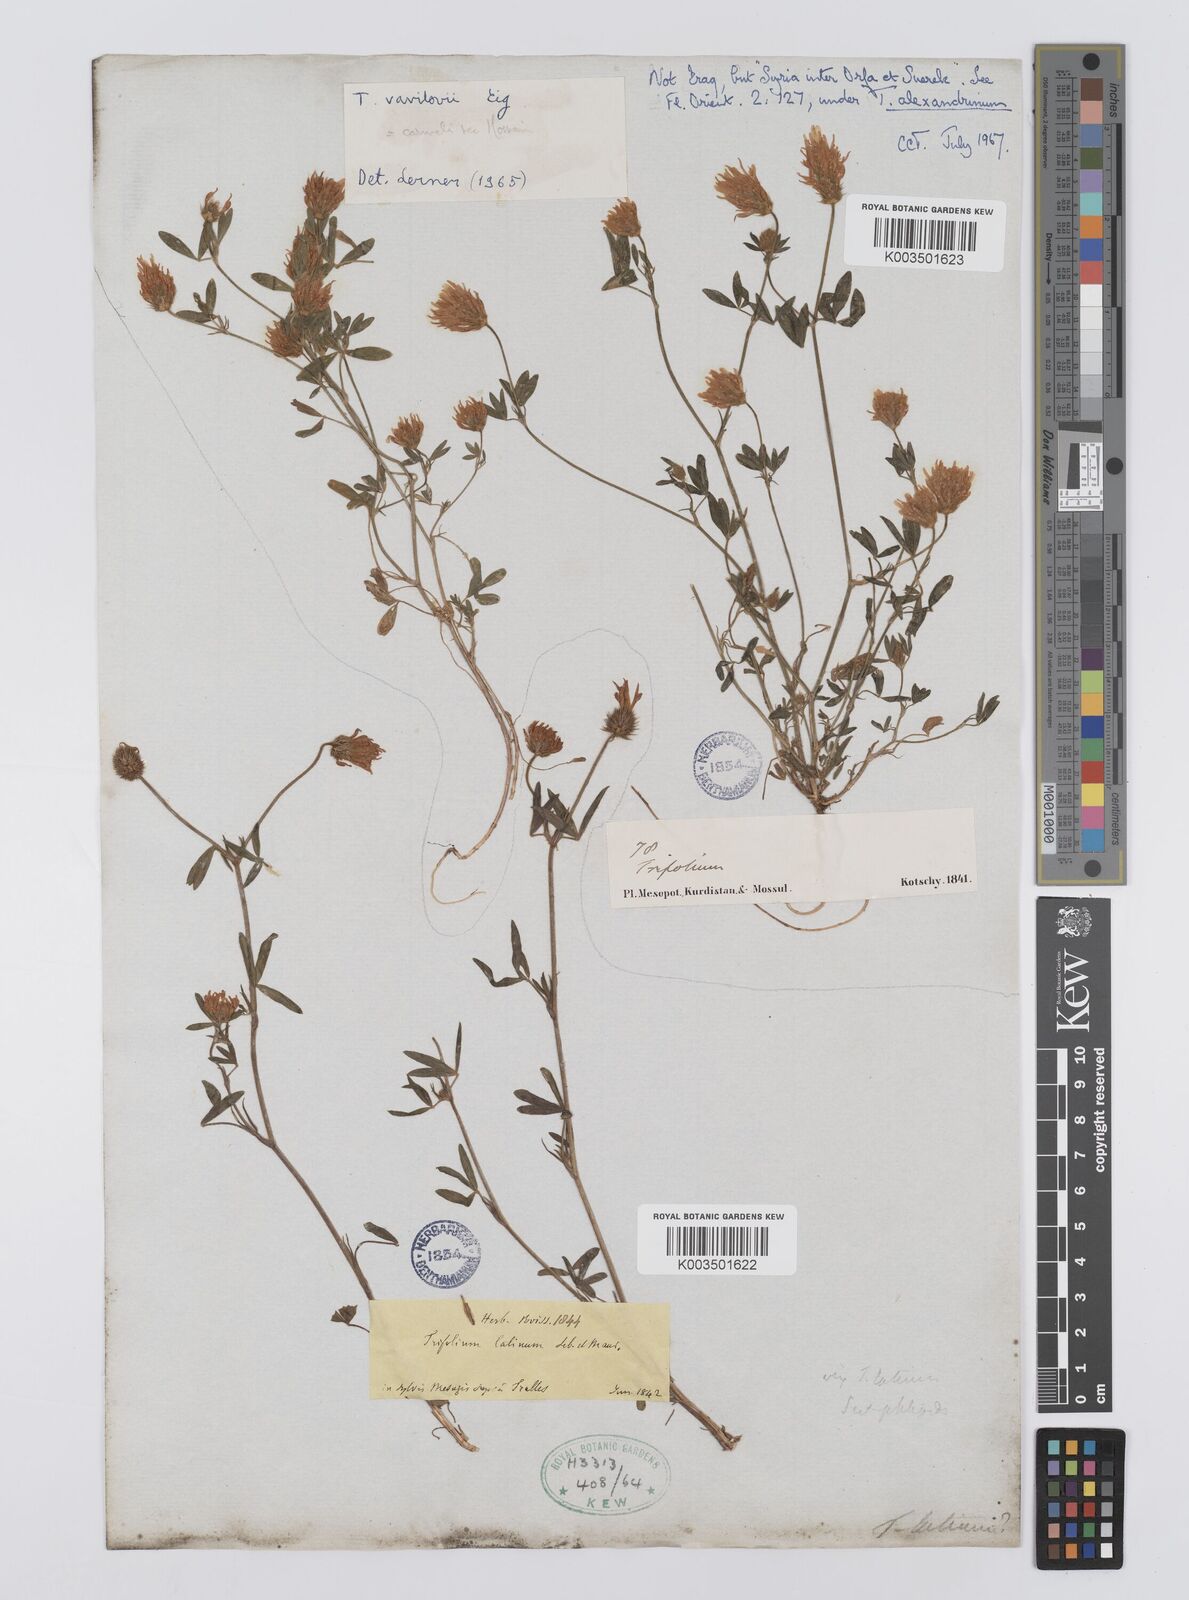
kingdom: Plantae
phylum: Tracheophyta
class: Magnoliopsida
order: Fabales
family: Fabaceae
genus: Trifolium
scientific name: Trifolium vavilovii
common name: Vavilov's clover
